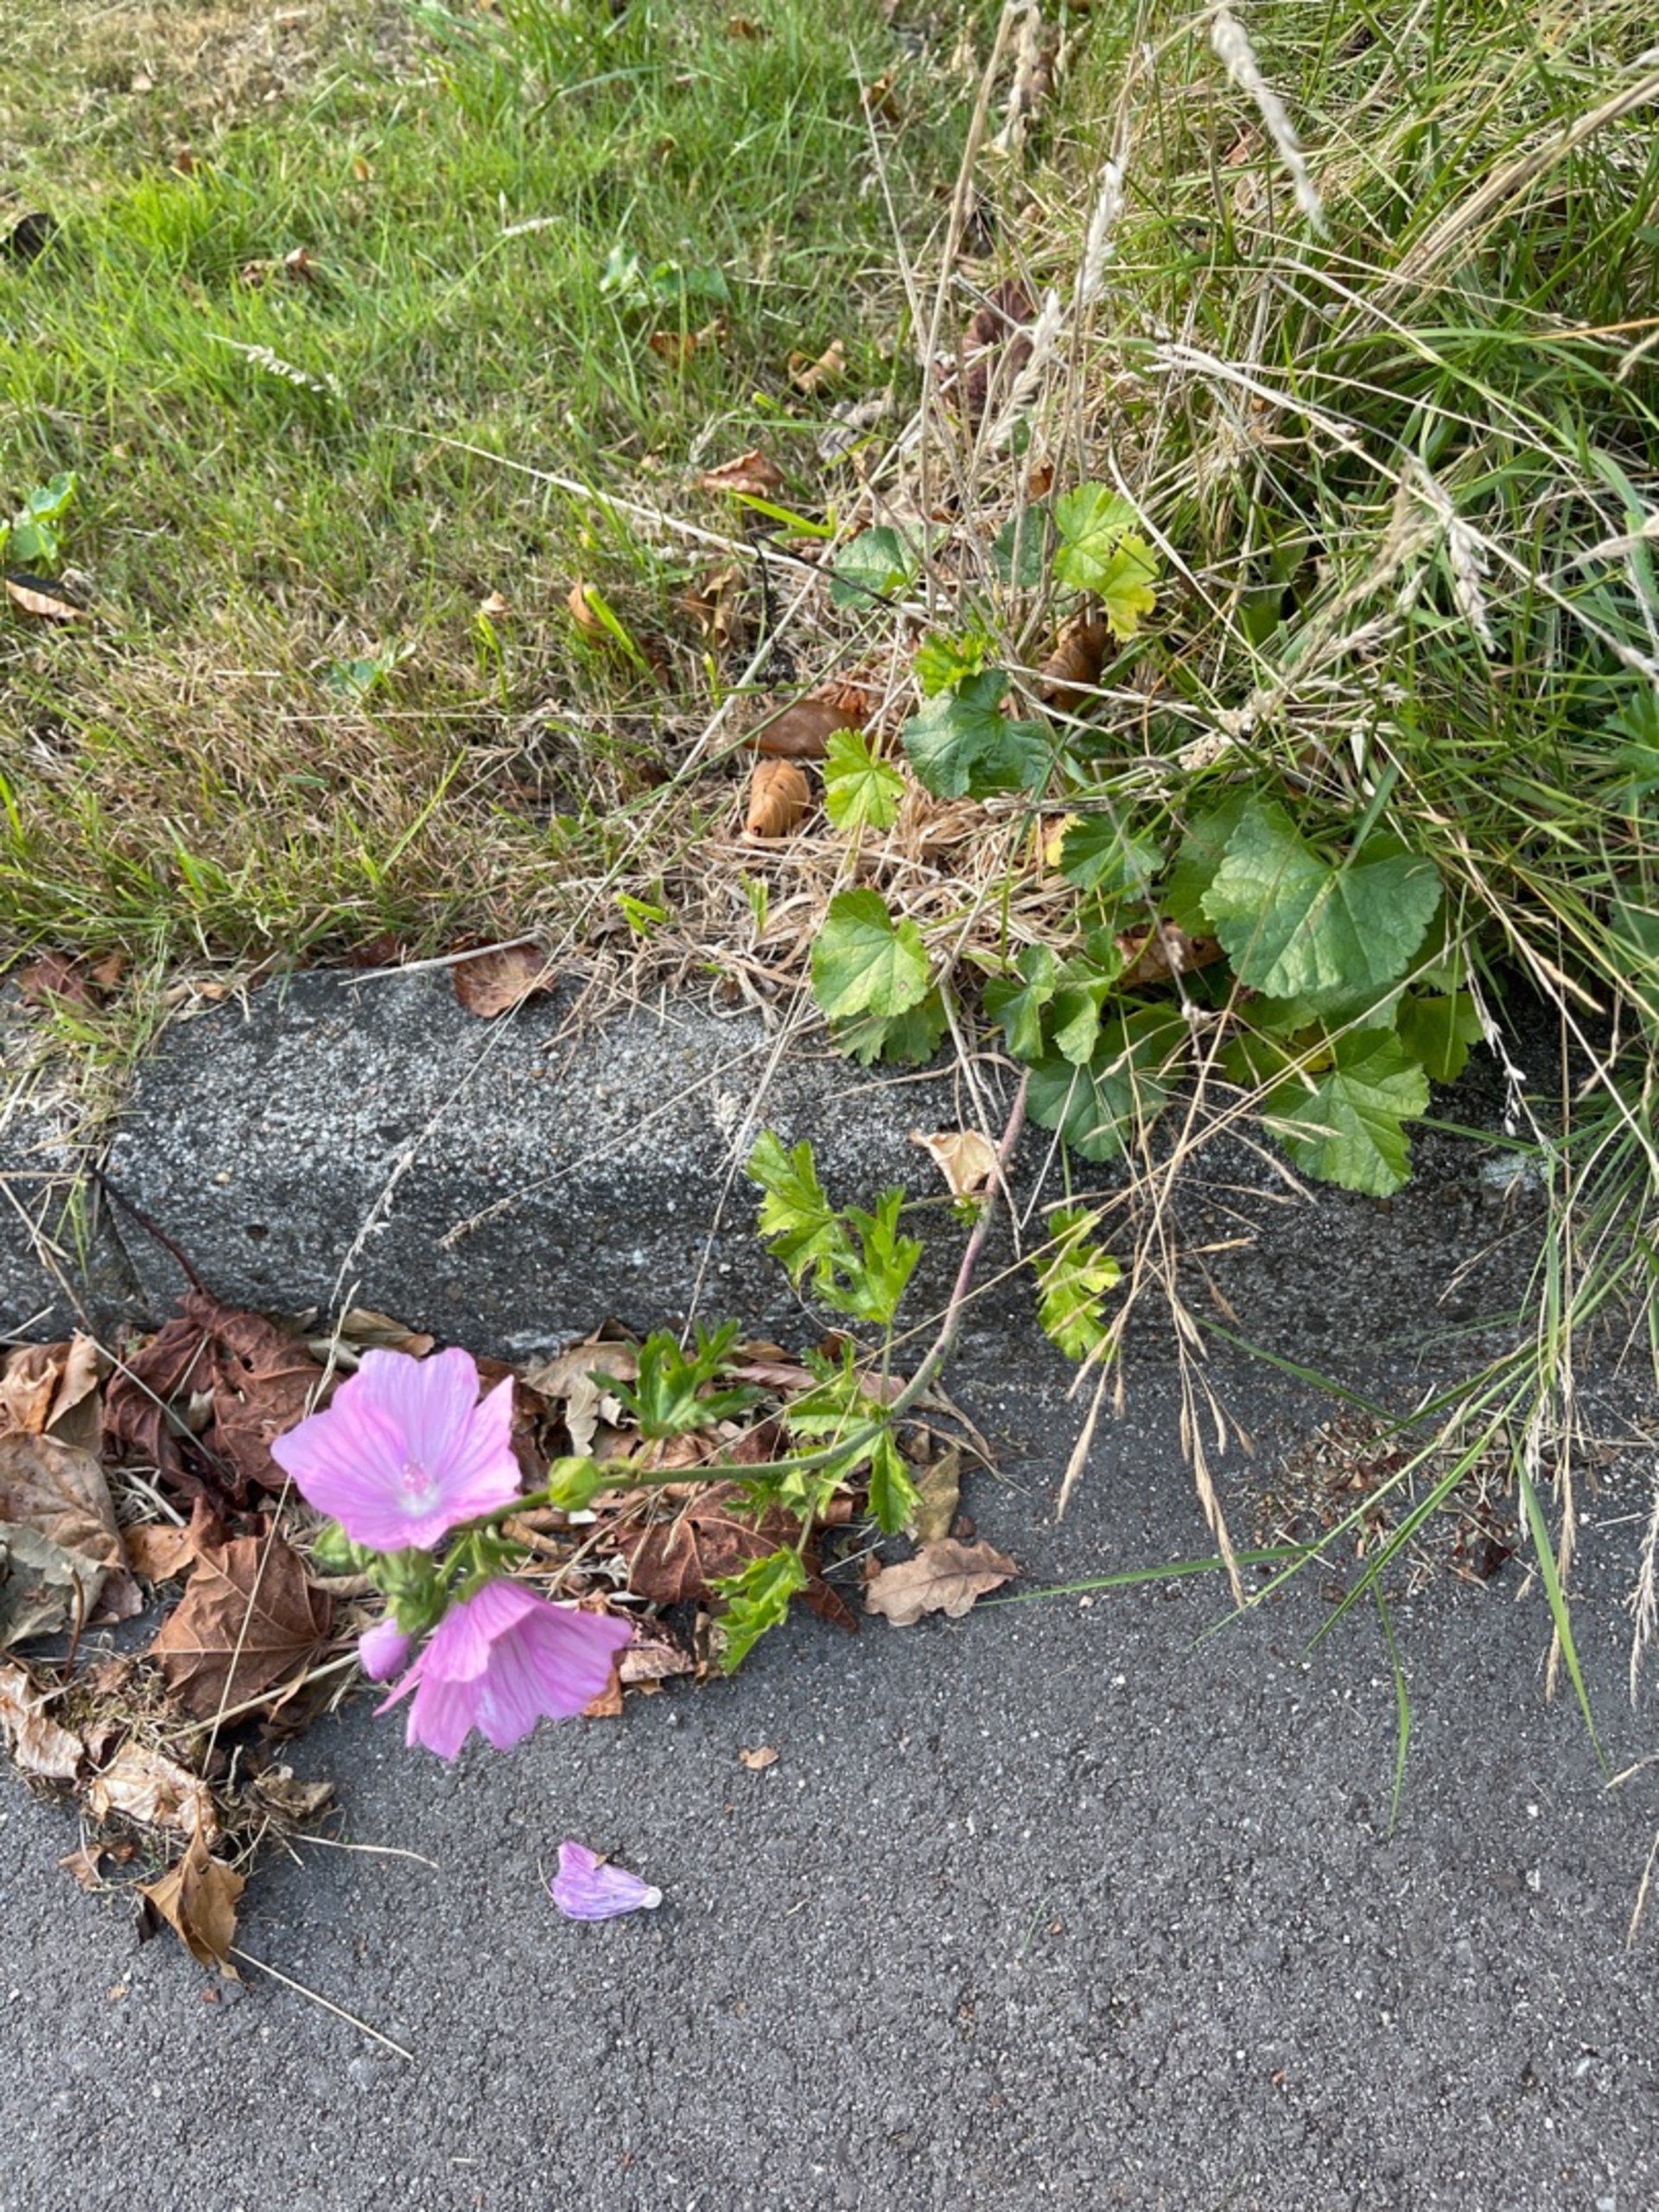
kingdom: Plantae
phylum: Tracheophyta
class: Magnoliopsida
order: Malvales
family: Malvaceae
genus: Malva
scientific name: Malva moschata
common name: Moskus-katost
